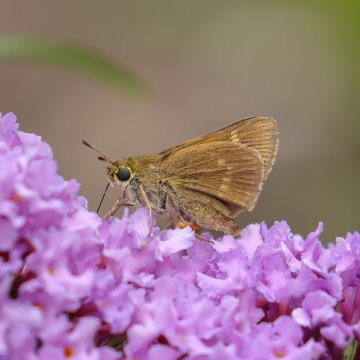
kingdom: Animalia
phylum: Arthropoda
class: Insecta
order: Lepidoptera
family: Hesperiidae
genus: Polites
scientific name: Polites
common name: Crossline Skipper
